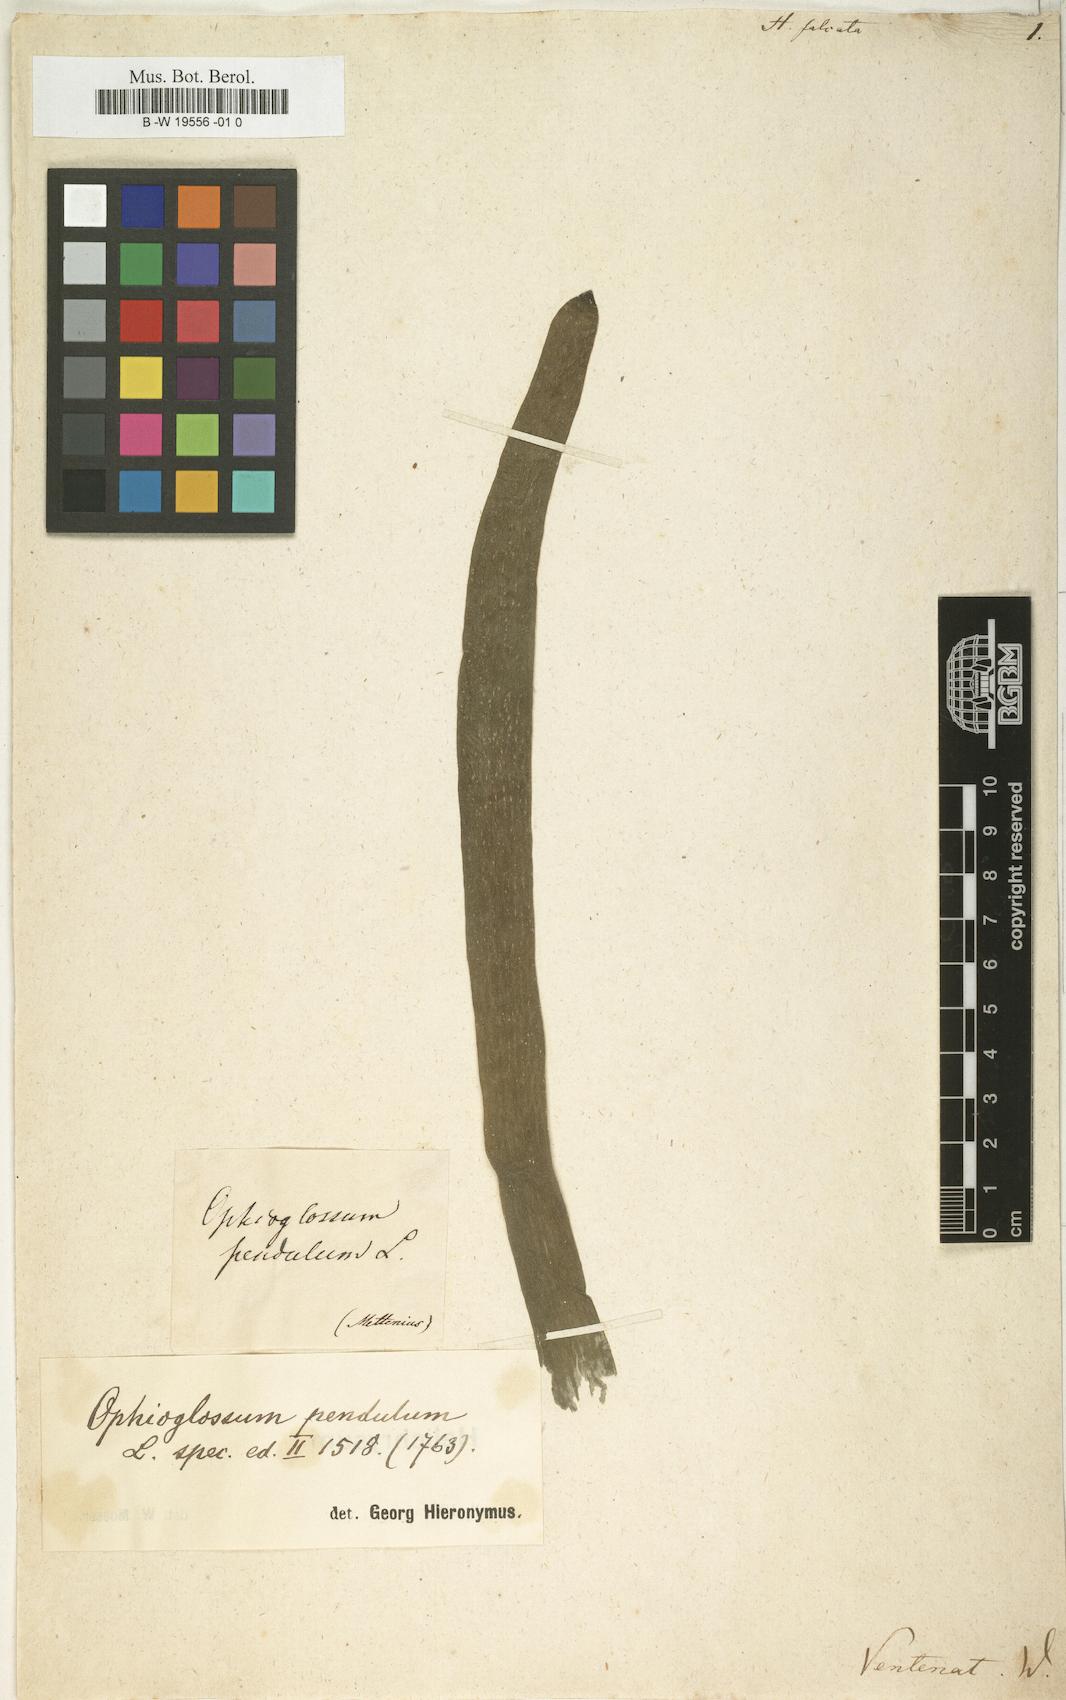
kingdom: Plantae
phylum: Tracheophyta
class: Polypodiopsida
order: Polypodiales
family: Pteridaceae
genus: Antrophyum
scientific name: Antrophyum callifolium
